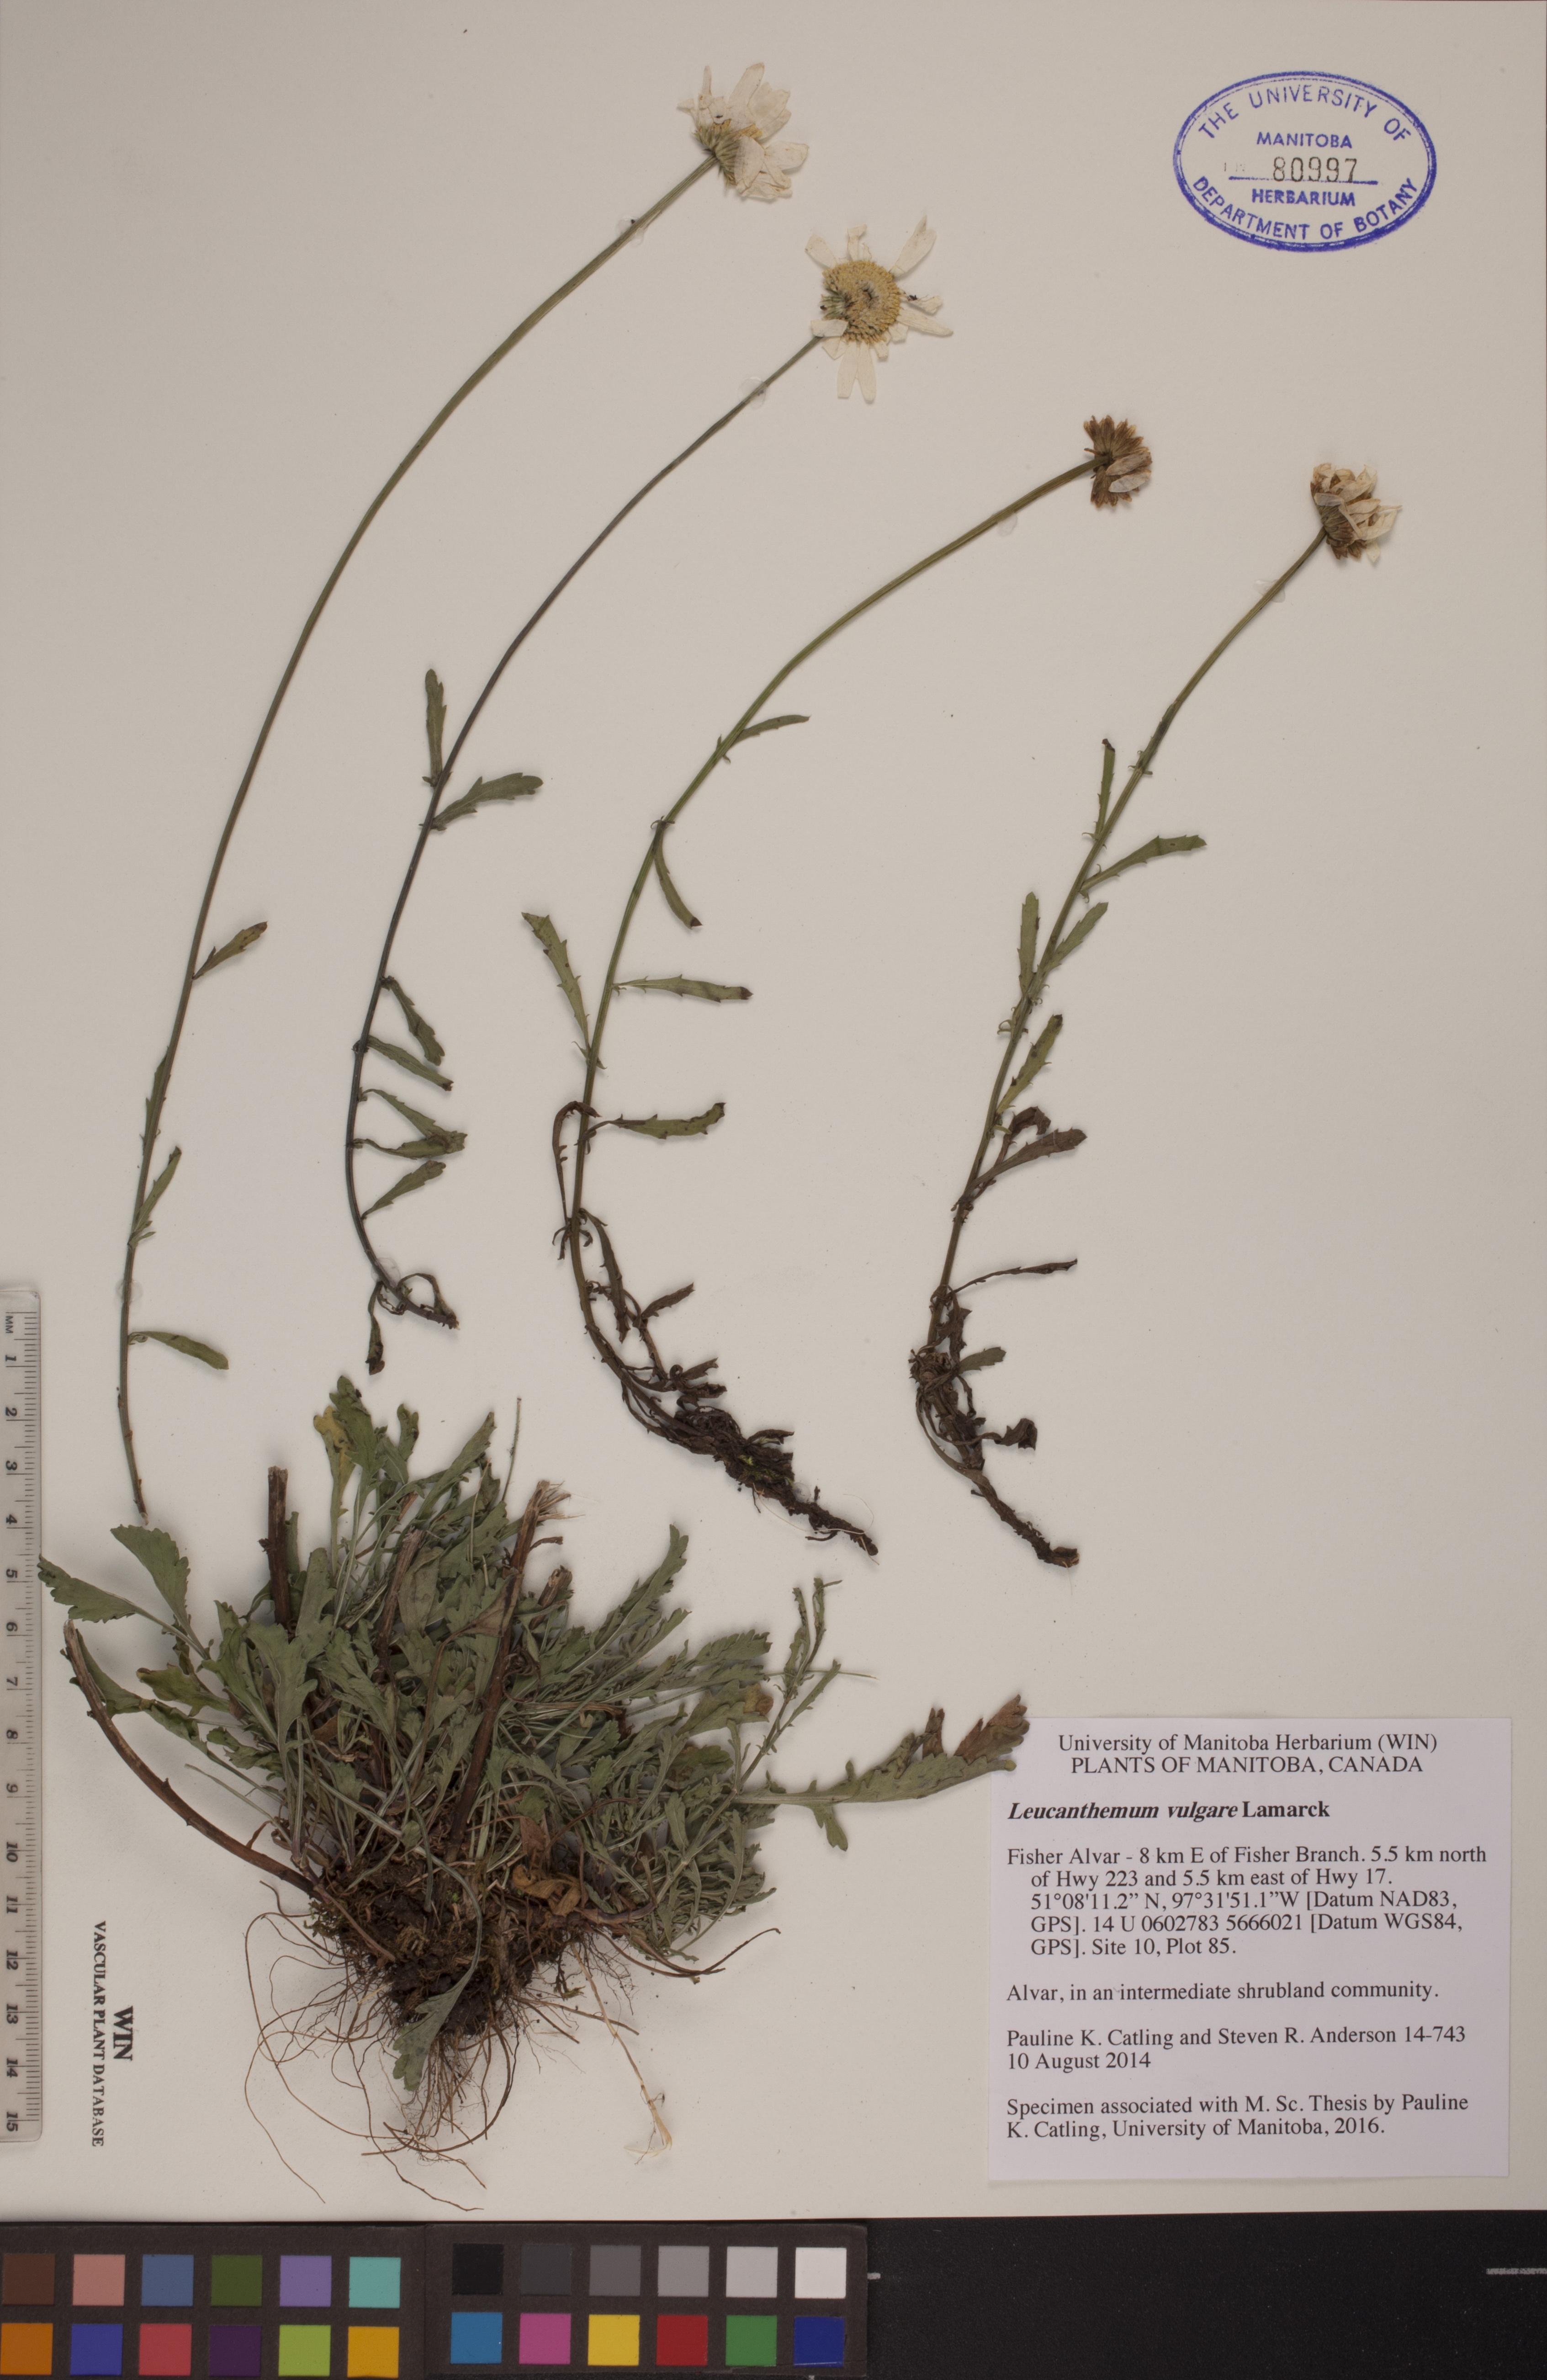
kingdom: Plantae
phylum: Tracheophyta
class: Magnoliopsida
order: Asterales
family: Asteraceae
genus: Leucanthemum
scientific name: Leucanthemum vulgare
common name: Oxeye daisy
